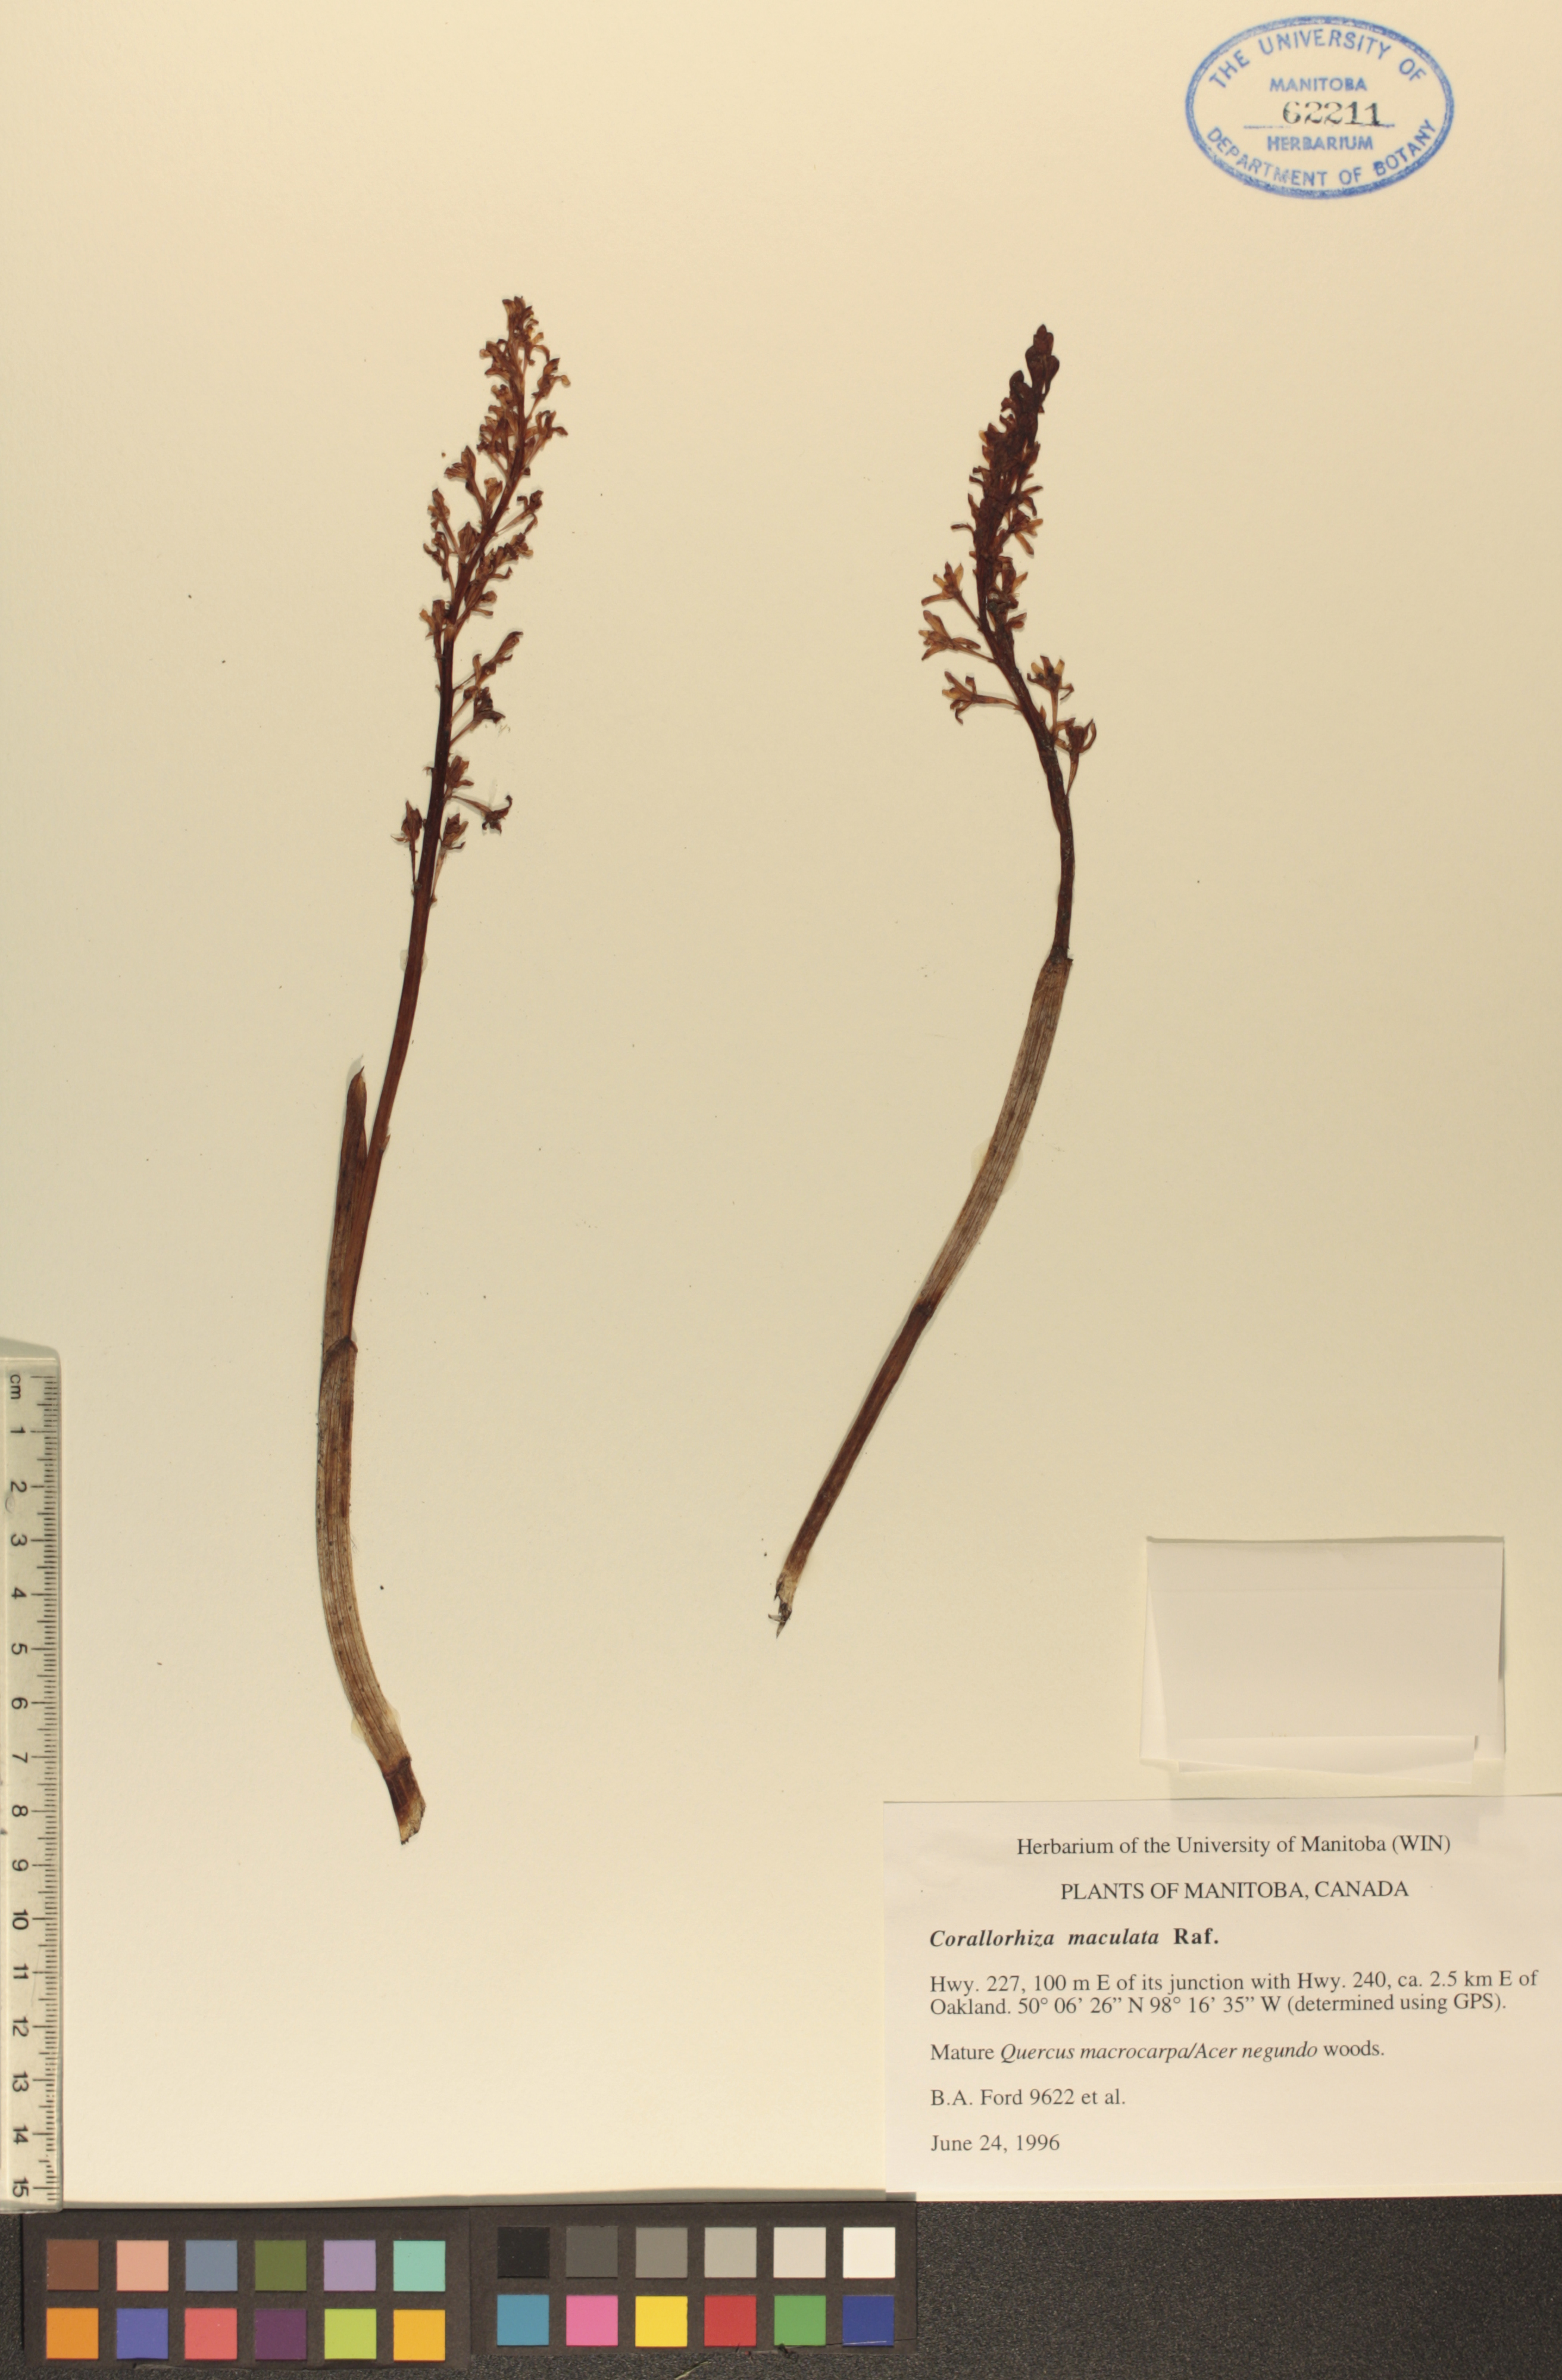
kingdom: Plantae
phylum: Tracheophyta
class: Liliopsida
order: Asparagales
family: Orchidaceae
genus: Corallorhiza
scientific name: Corallorhiza maculata
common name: Spotted coralroot
